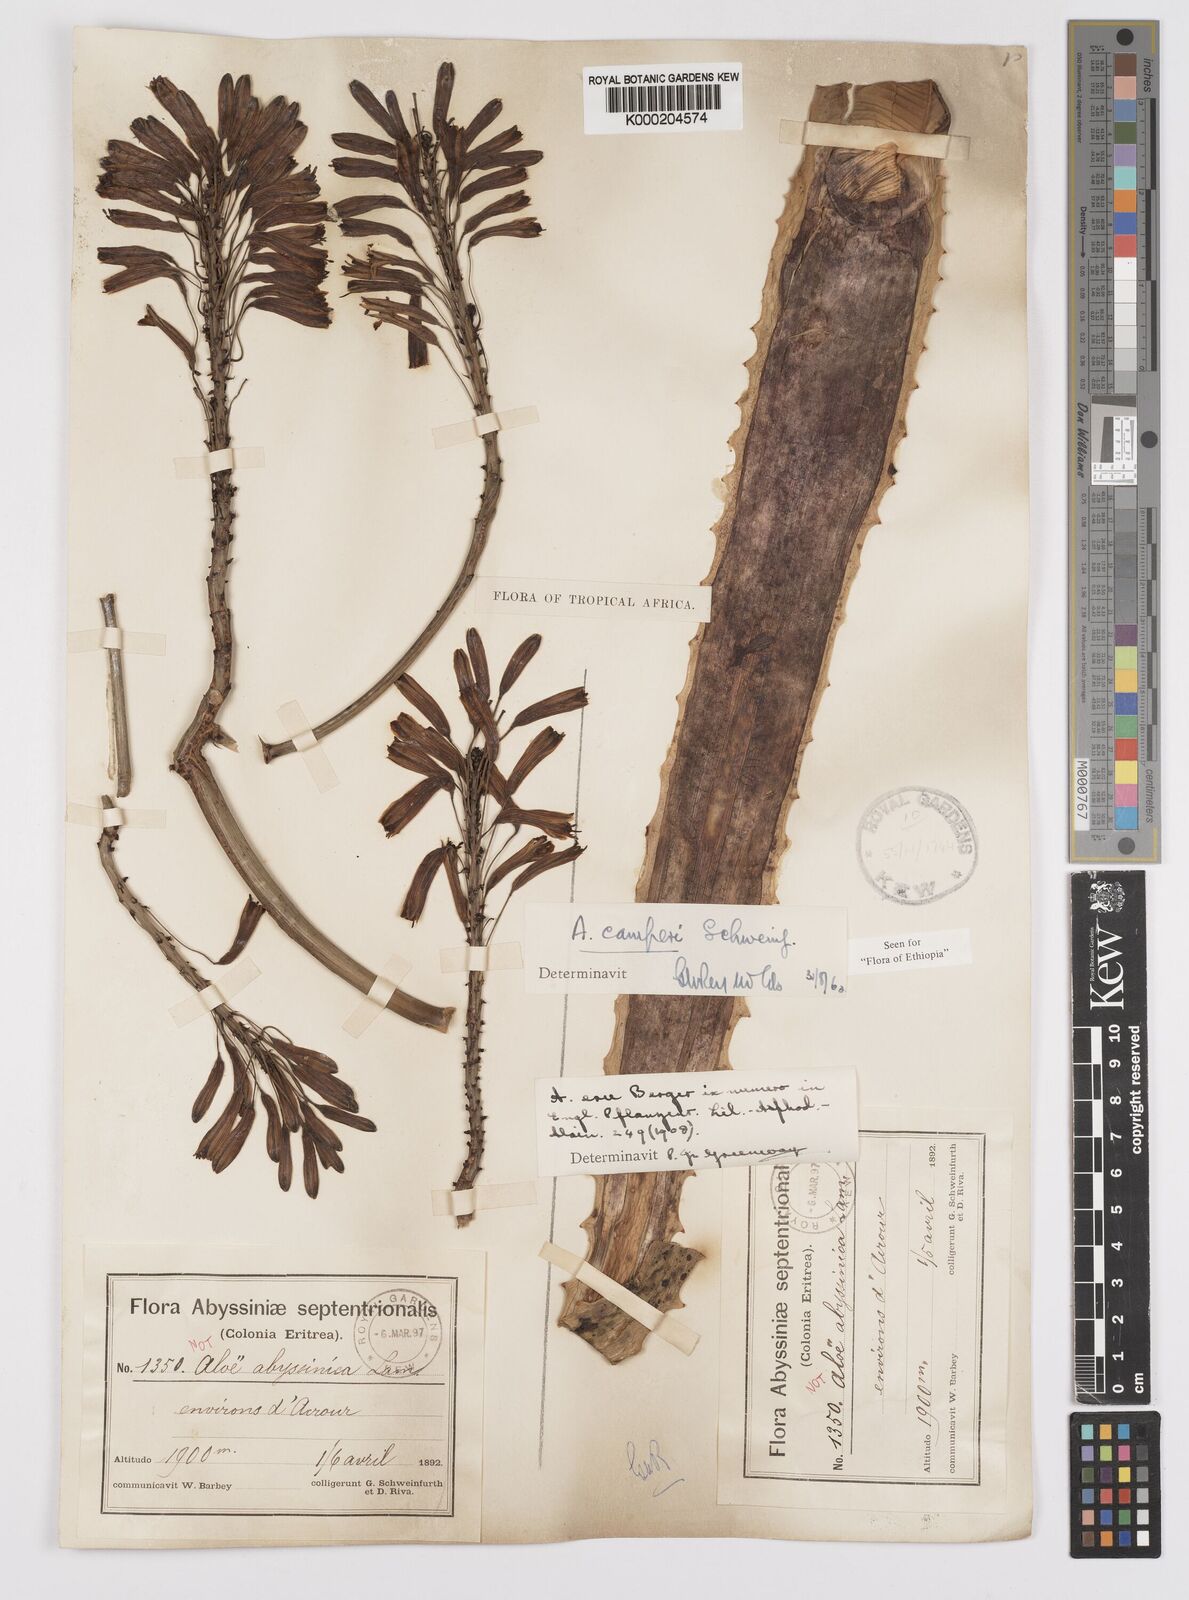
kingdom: Plantae
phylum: Tracheophyta
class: Liliopsida
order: Asparagales
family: Asphodelaceae
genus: Aloe
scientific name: Aloe camperi
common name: Camper's aloe
